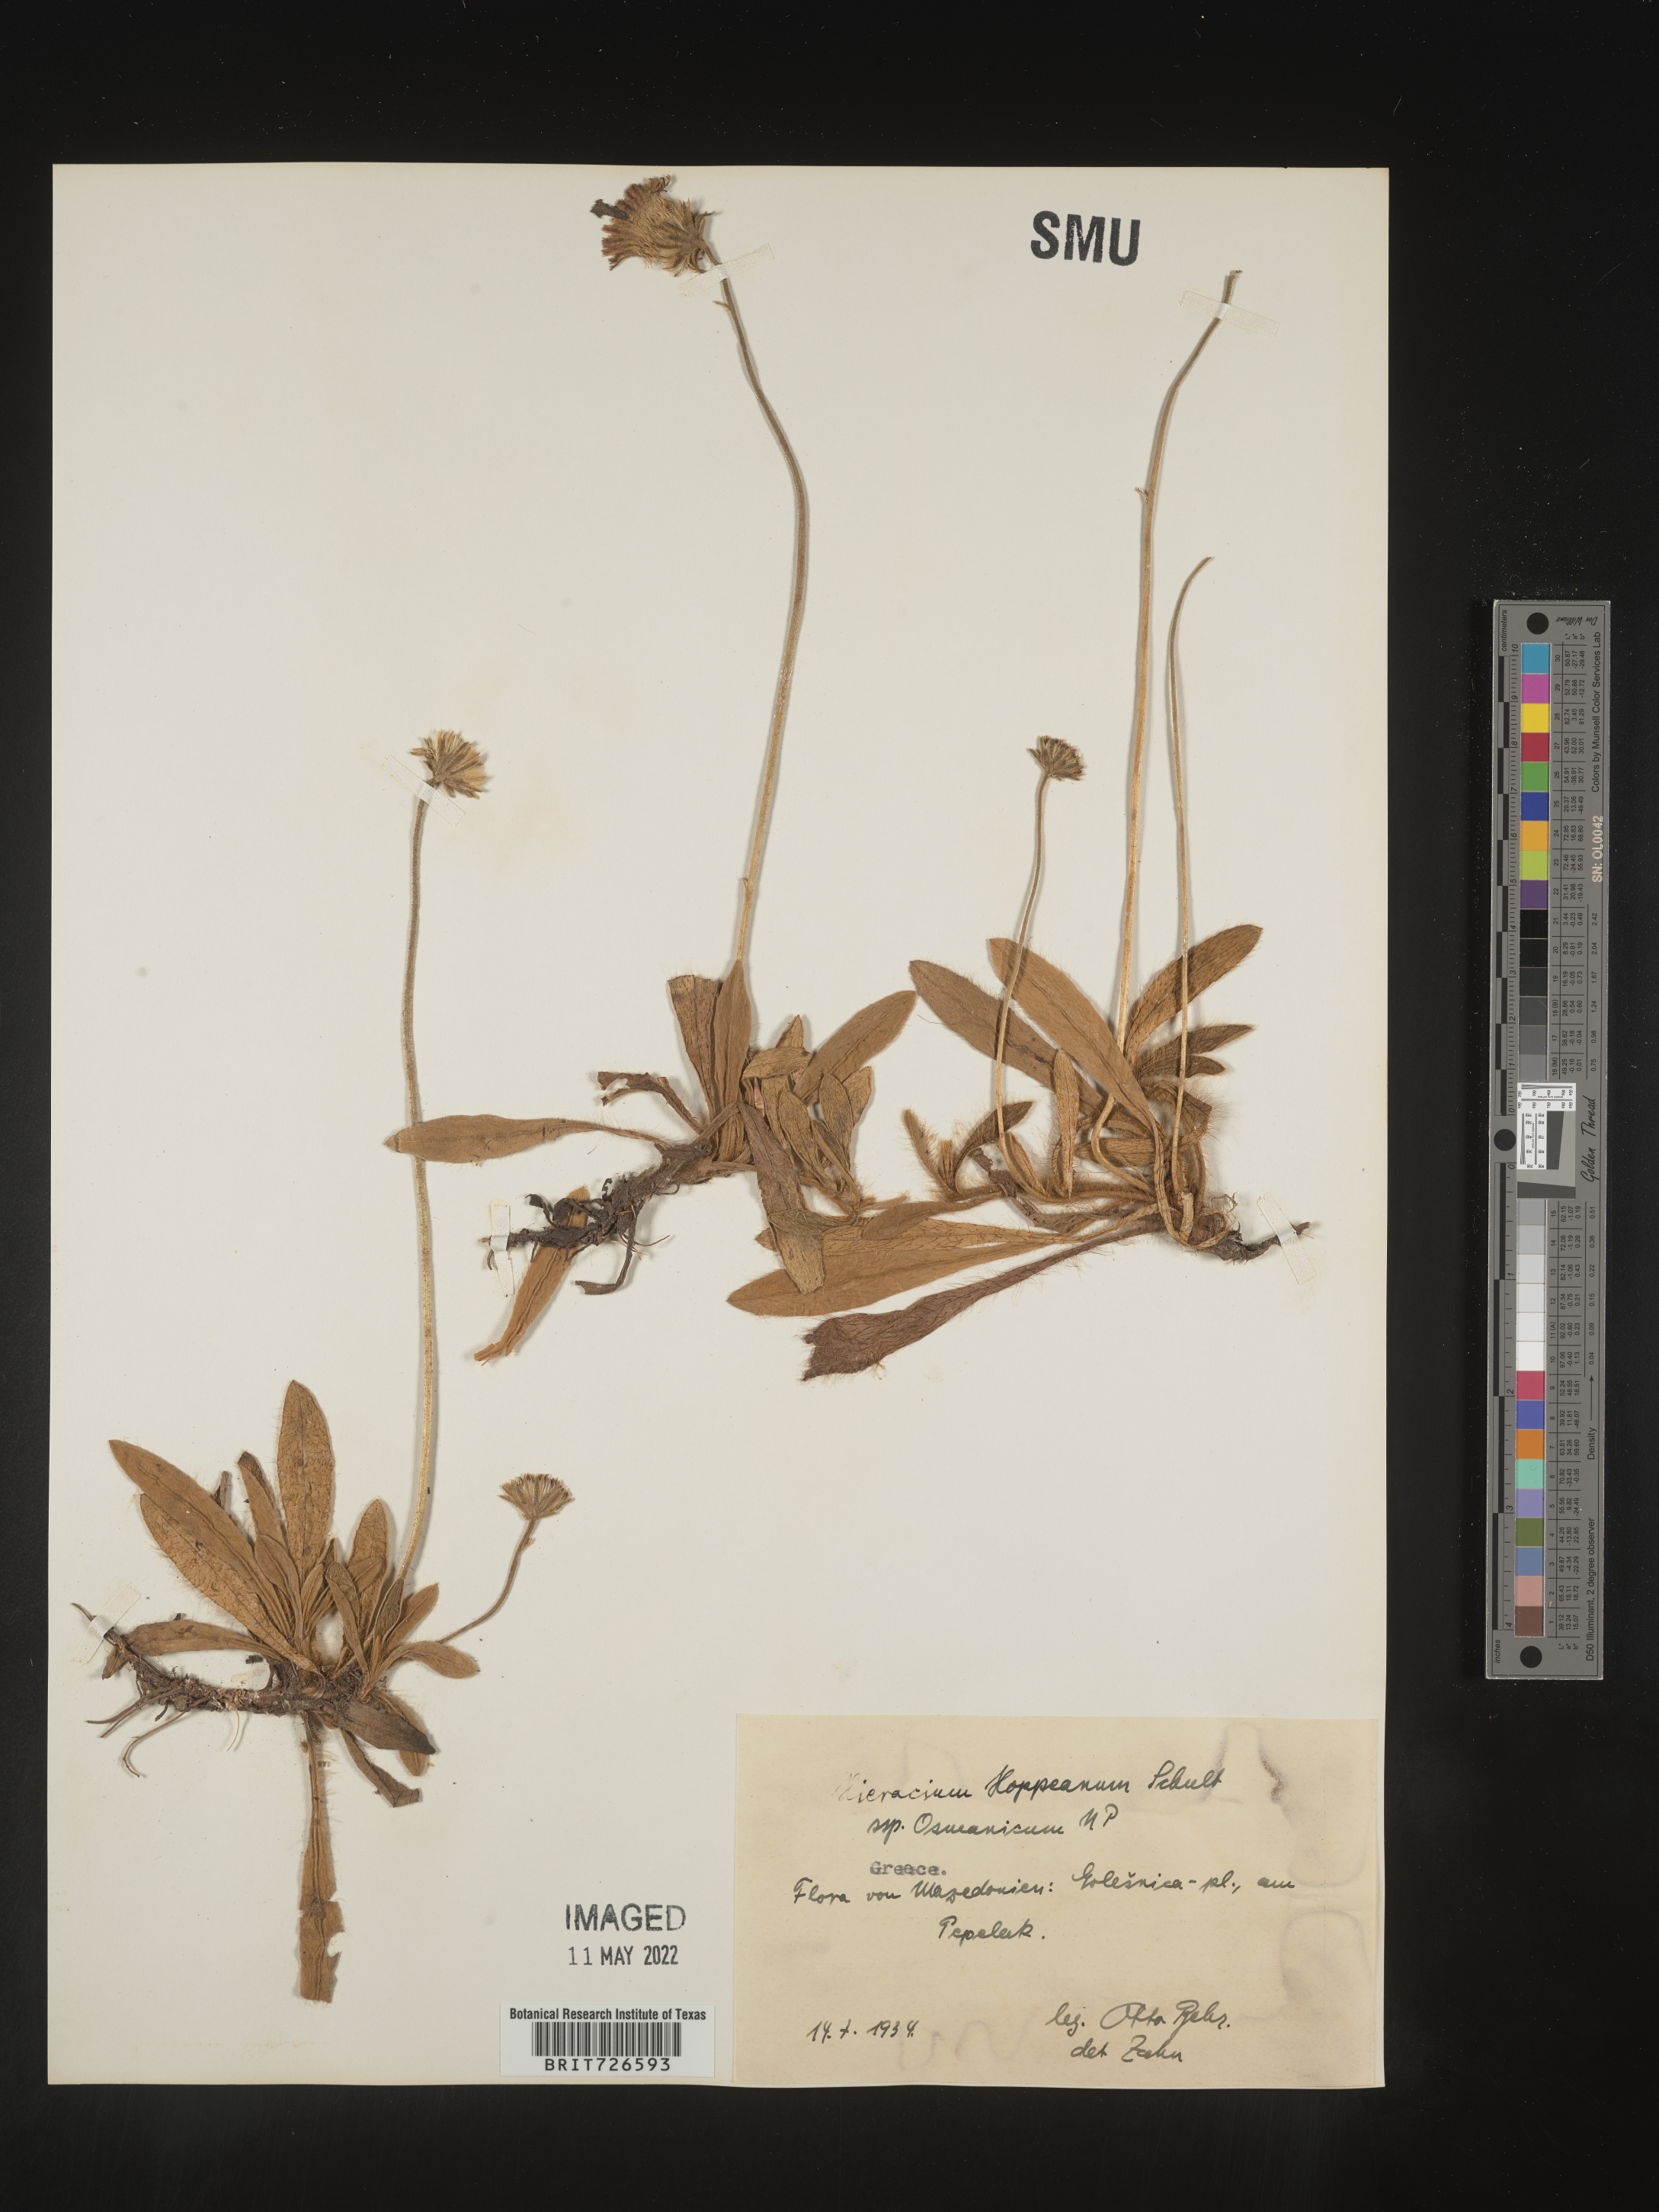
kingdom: Plantae
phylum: Tracheophyta
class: Magnoliopsida
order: Asterales
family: Asteraceae
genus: Hieracium
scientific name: Hieracium
